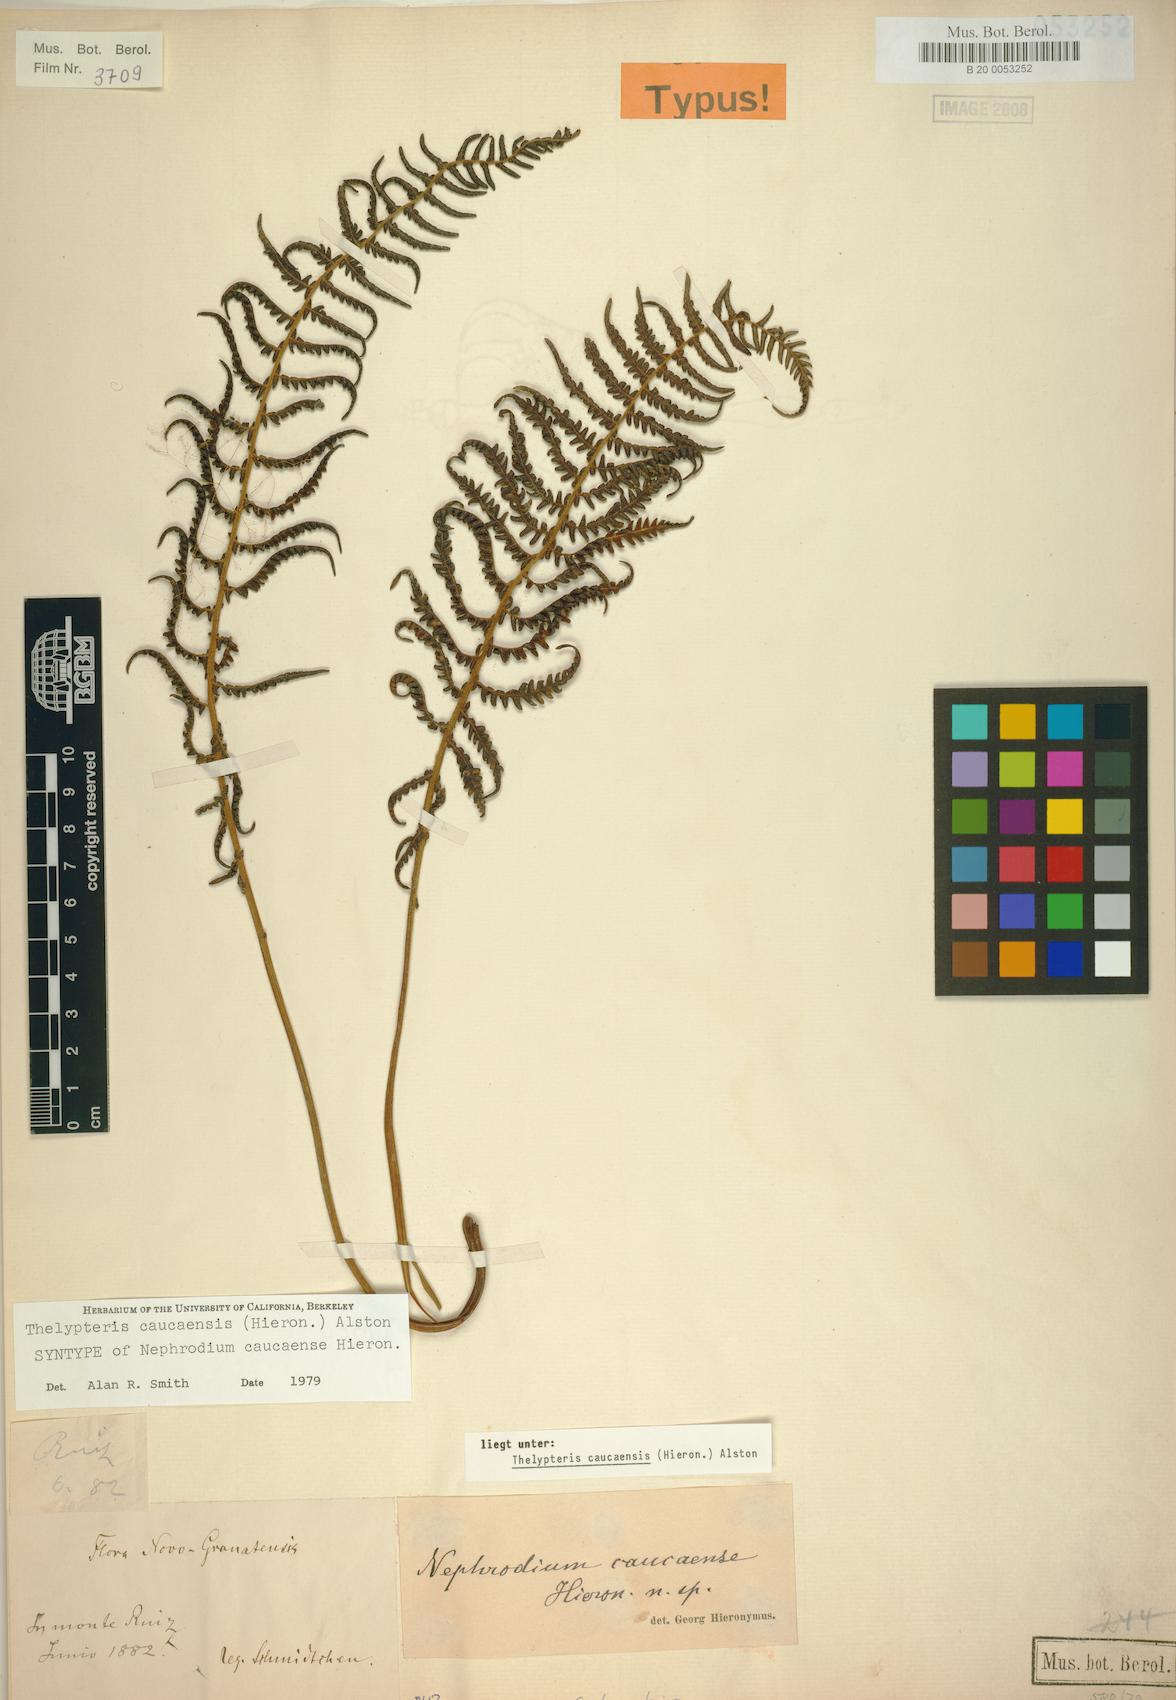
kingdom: Plantae
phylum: Tracheophyta
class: Polypodiopsida
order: Polypodiales
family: Thelypteridaceae
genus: Amauropelta
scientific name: Amauropelta caucaensis
